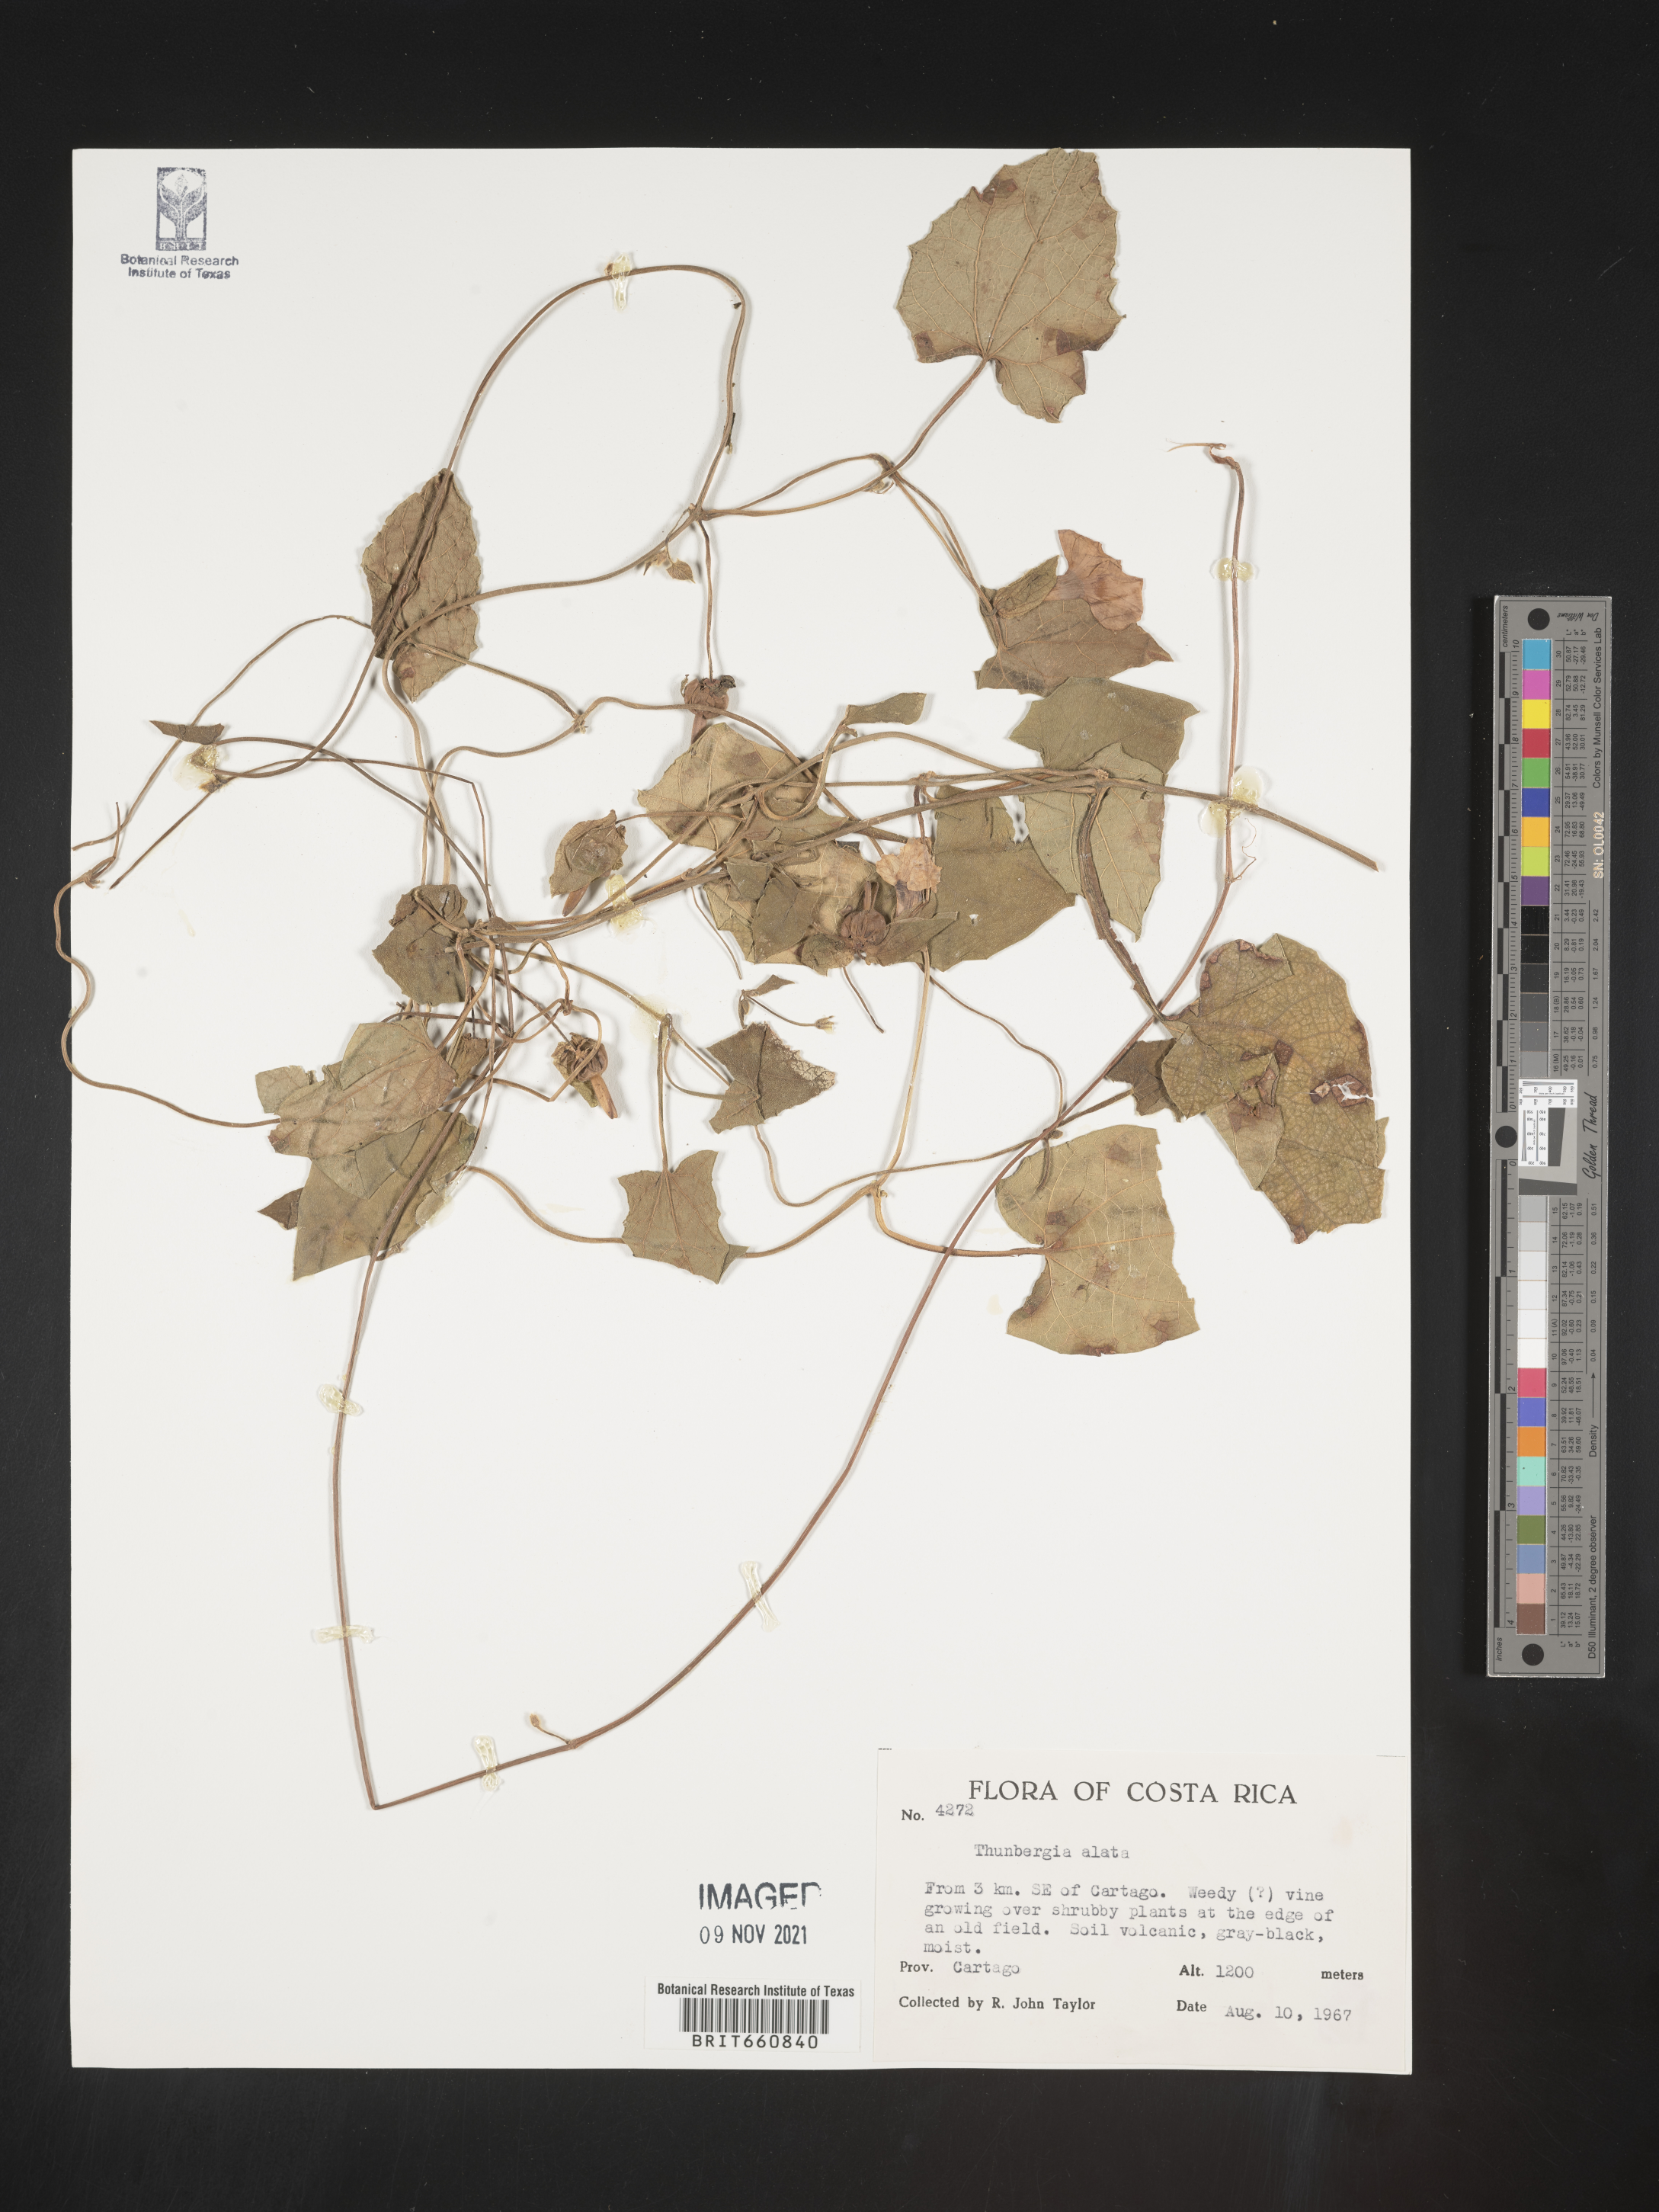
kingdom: Plantae
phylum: Tracheophyta
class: Magnoliopsida
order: Lamiales
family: Acanthaceae
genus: Thunbergia
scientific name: Thunbergia
